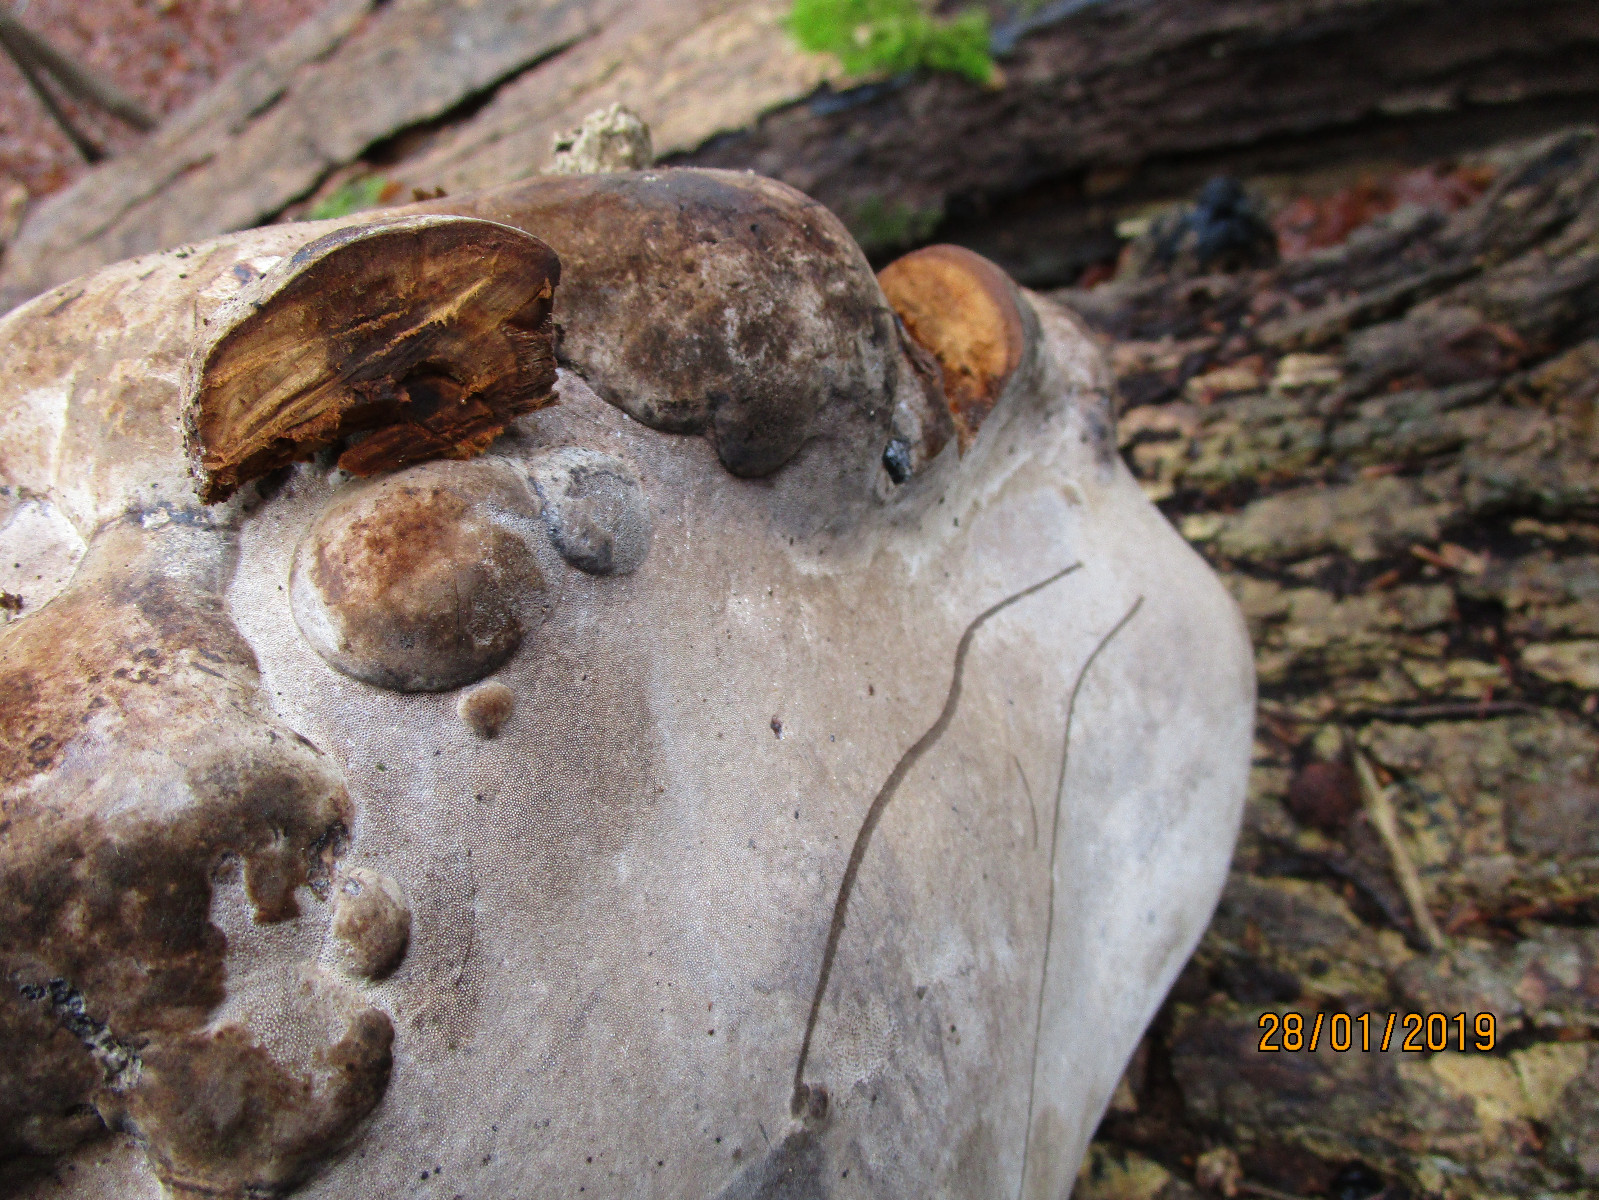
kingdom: Fungi
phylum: Basidiomycota
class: Agaricomycetes
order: Polyporales
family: Polyporaceae
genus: Fomes
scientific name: Fomes fomentarius
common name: tøndersvamp
